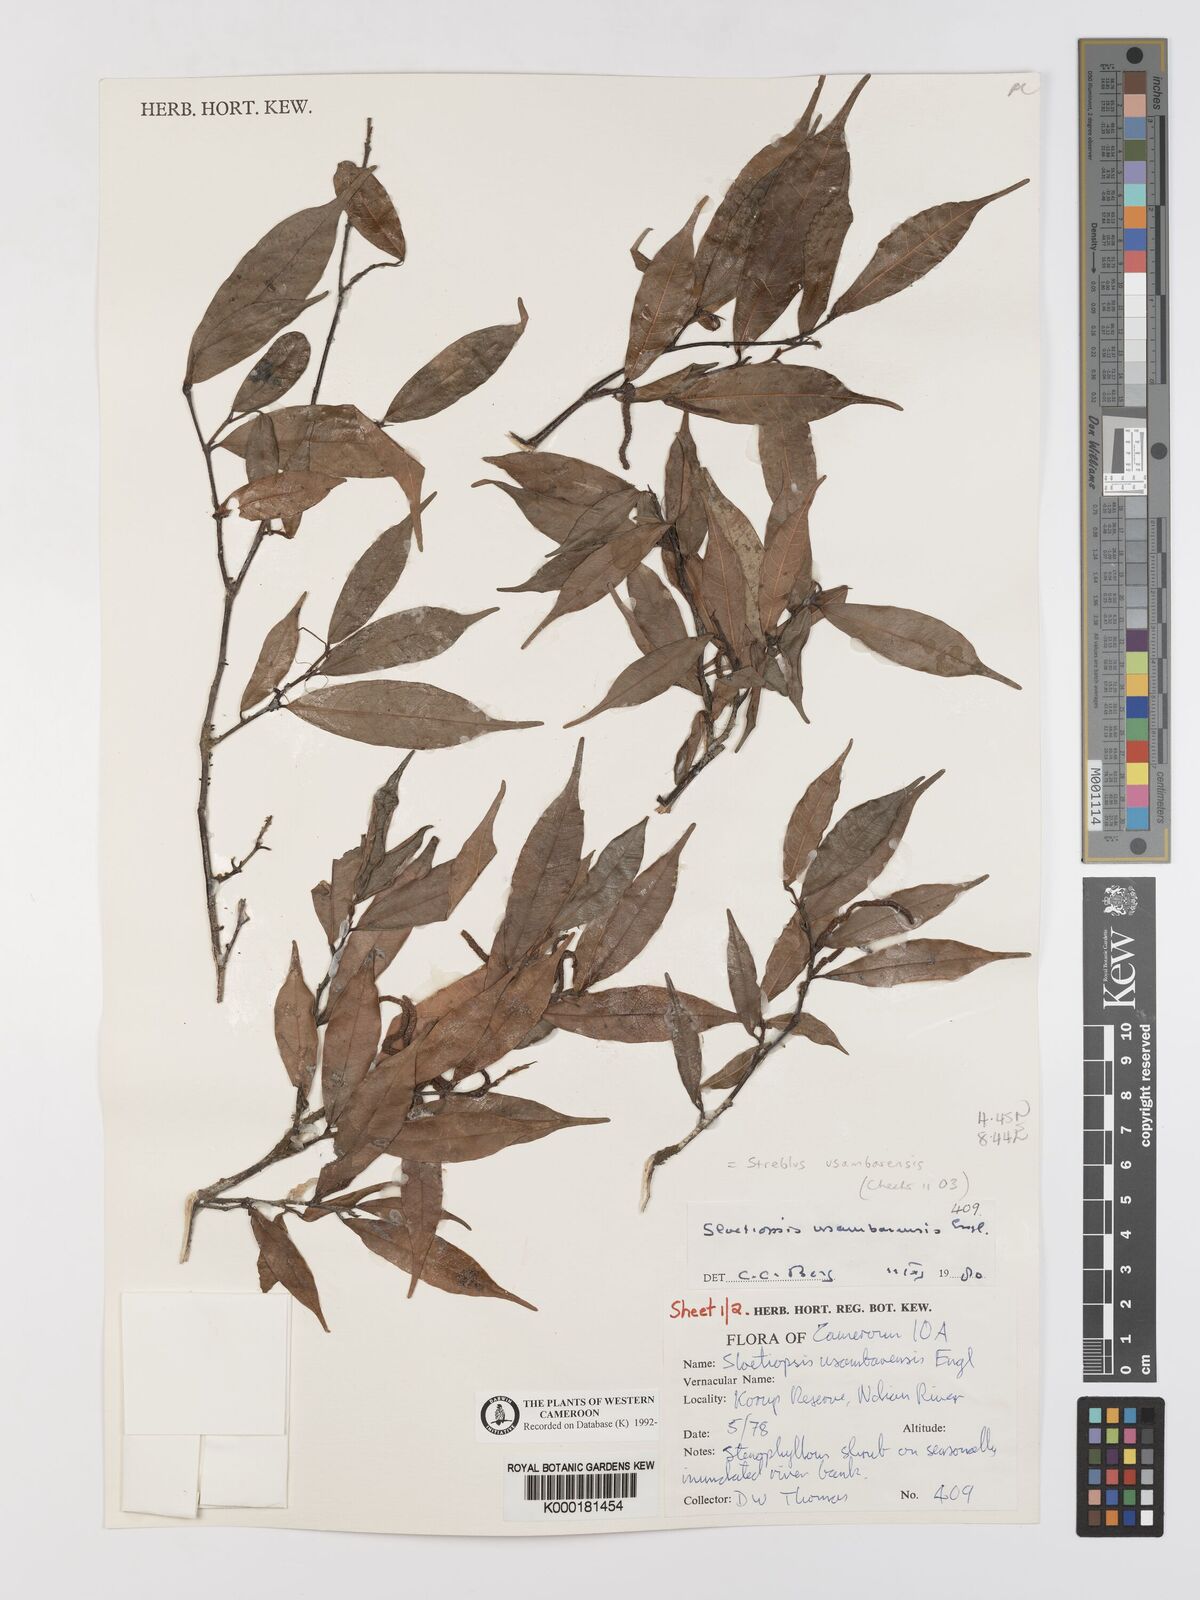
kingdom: Plantae
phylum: Tracheophyta
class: Magnoliopsida
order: Rosales
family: Moraceae
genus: Sloetiopsis
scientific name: Sloetiopsis usambarensis
